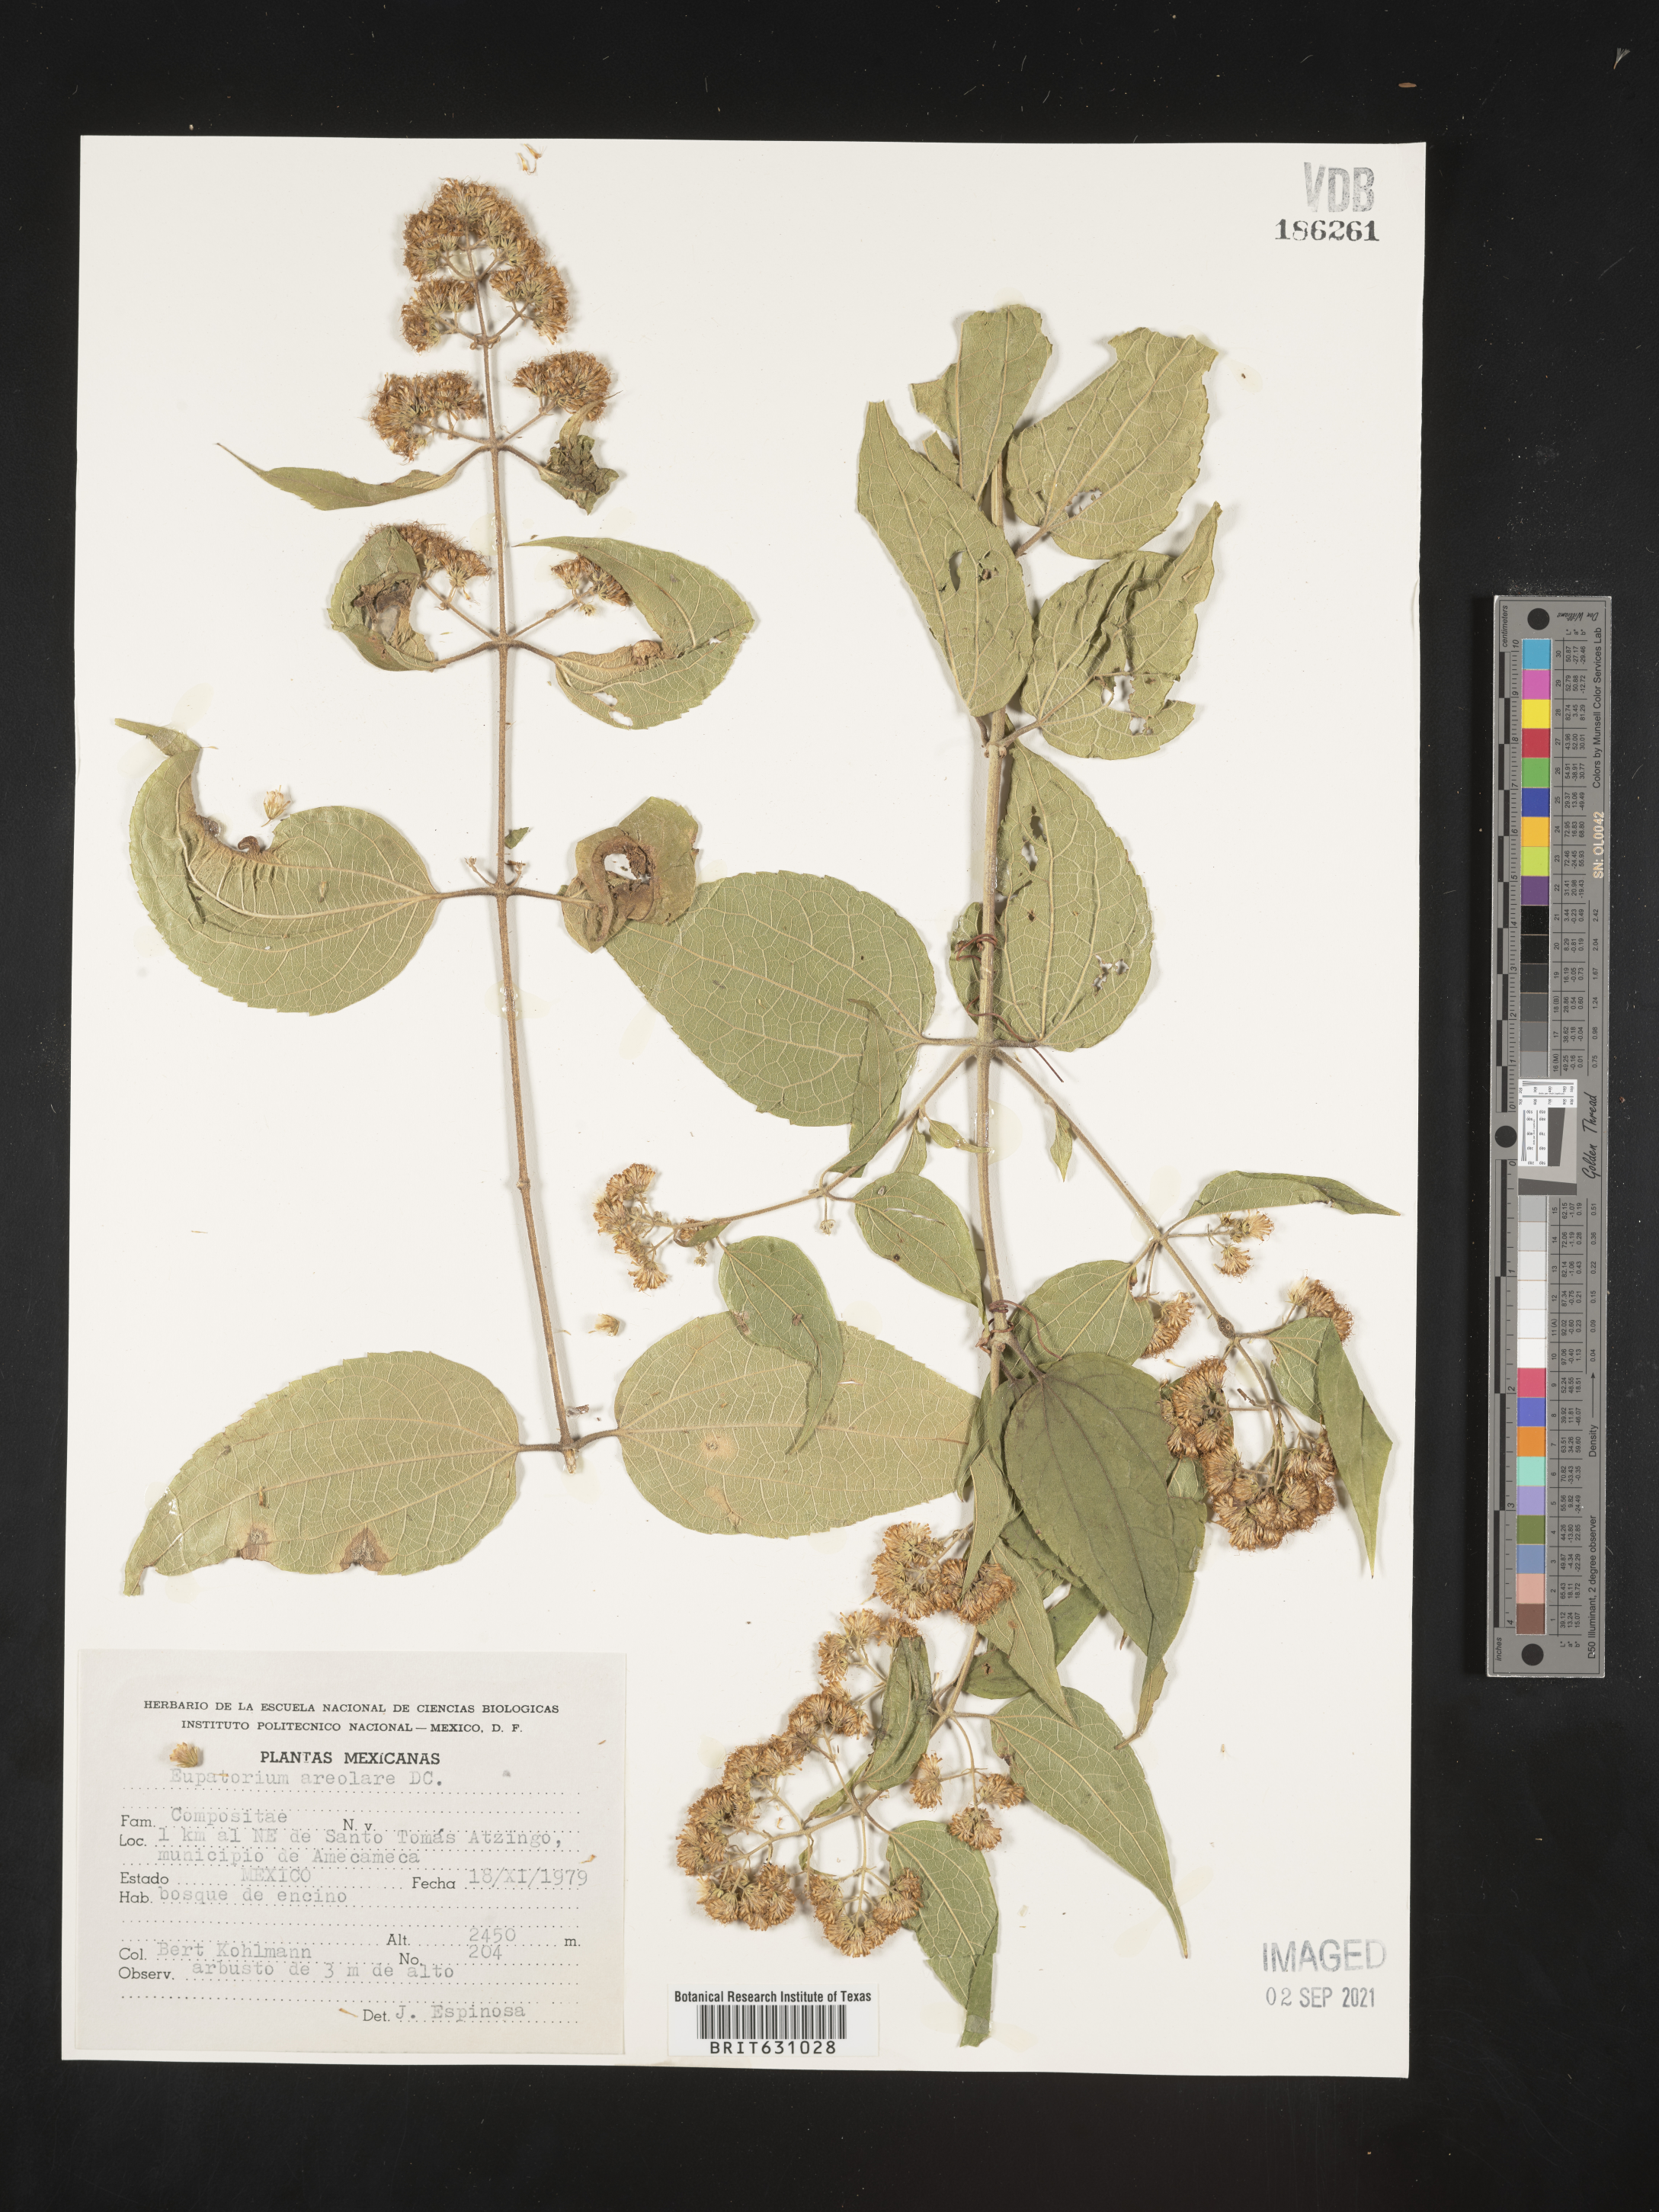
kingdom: Plantae
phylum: Tracheophyta
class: Magnoliopsida
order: Asterales
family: Asteraceae
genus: Eupatorium
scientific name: Eupatorium
